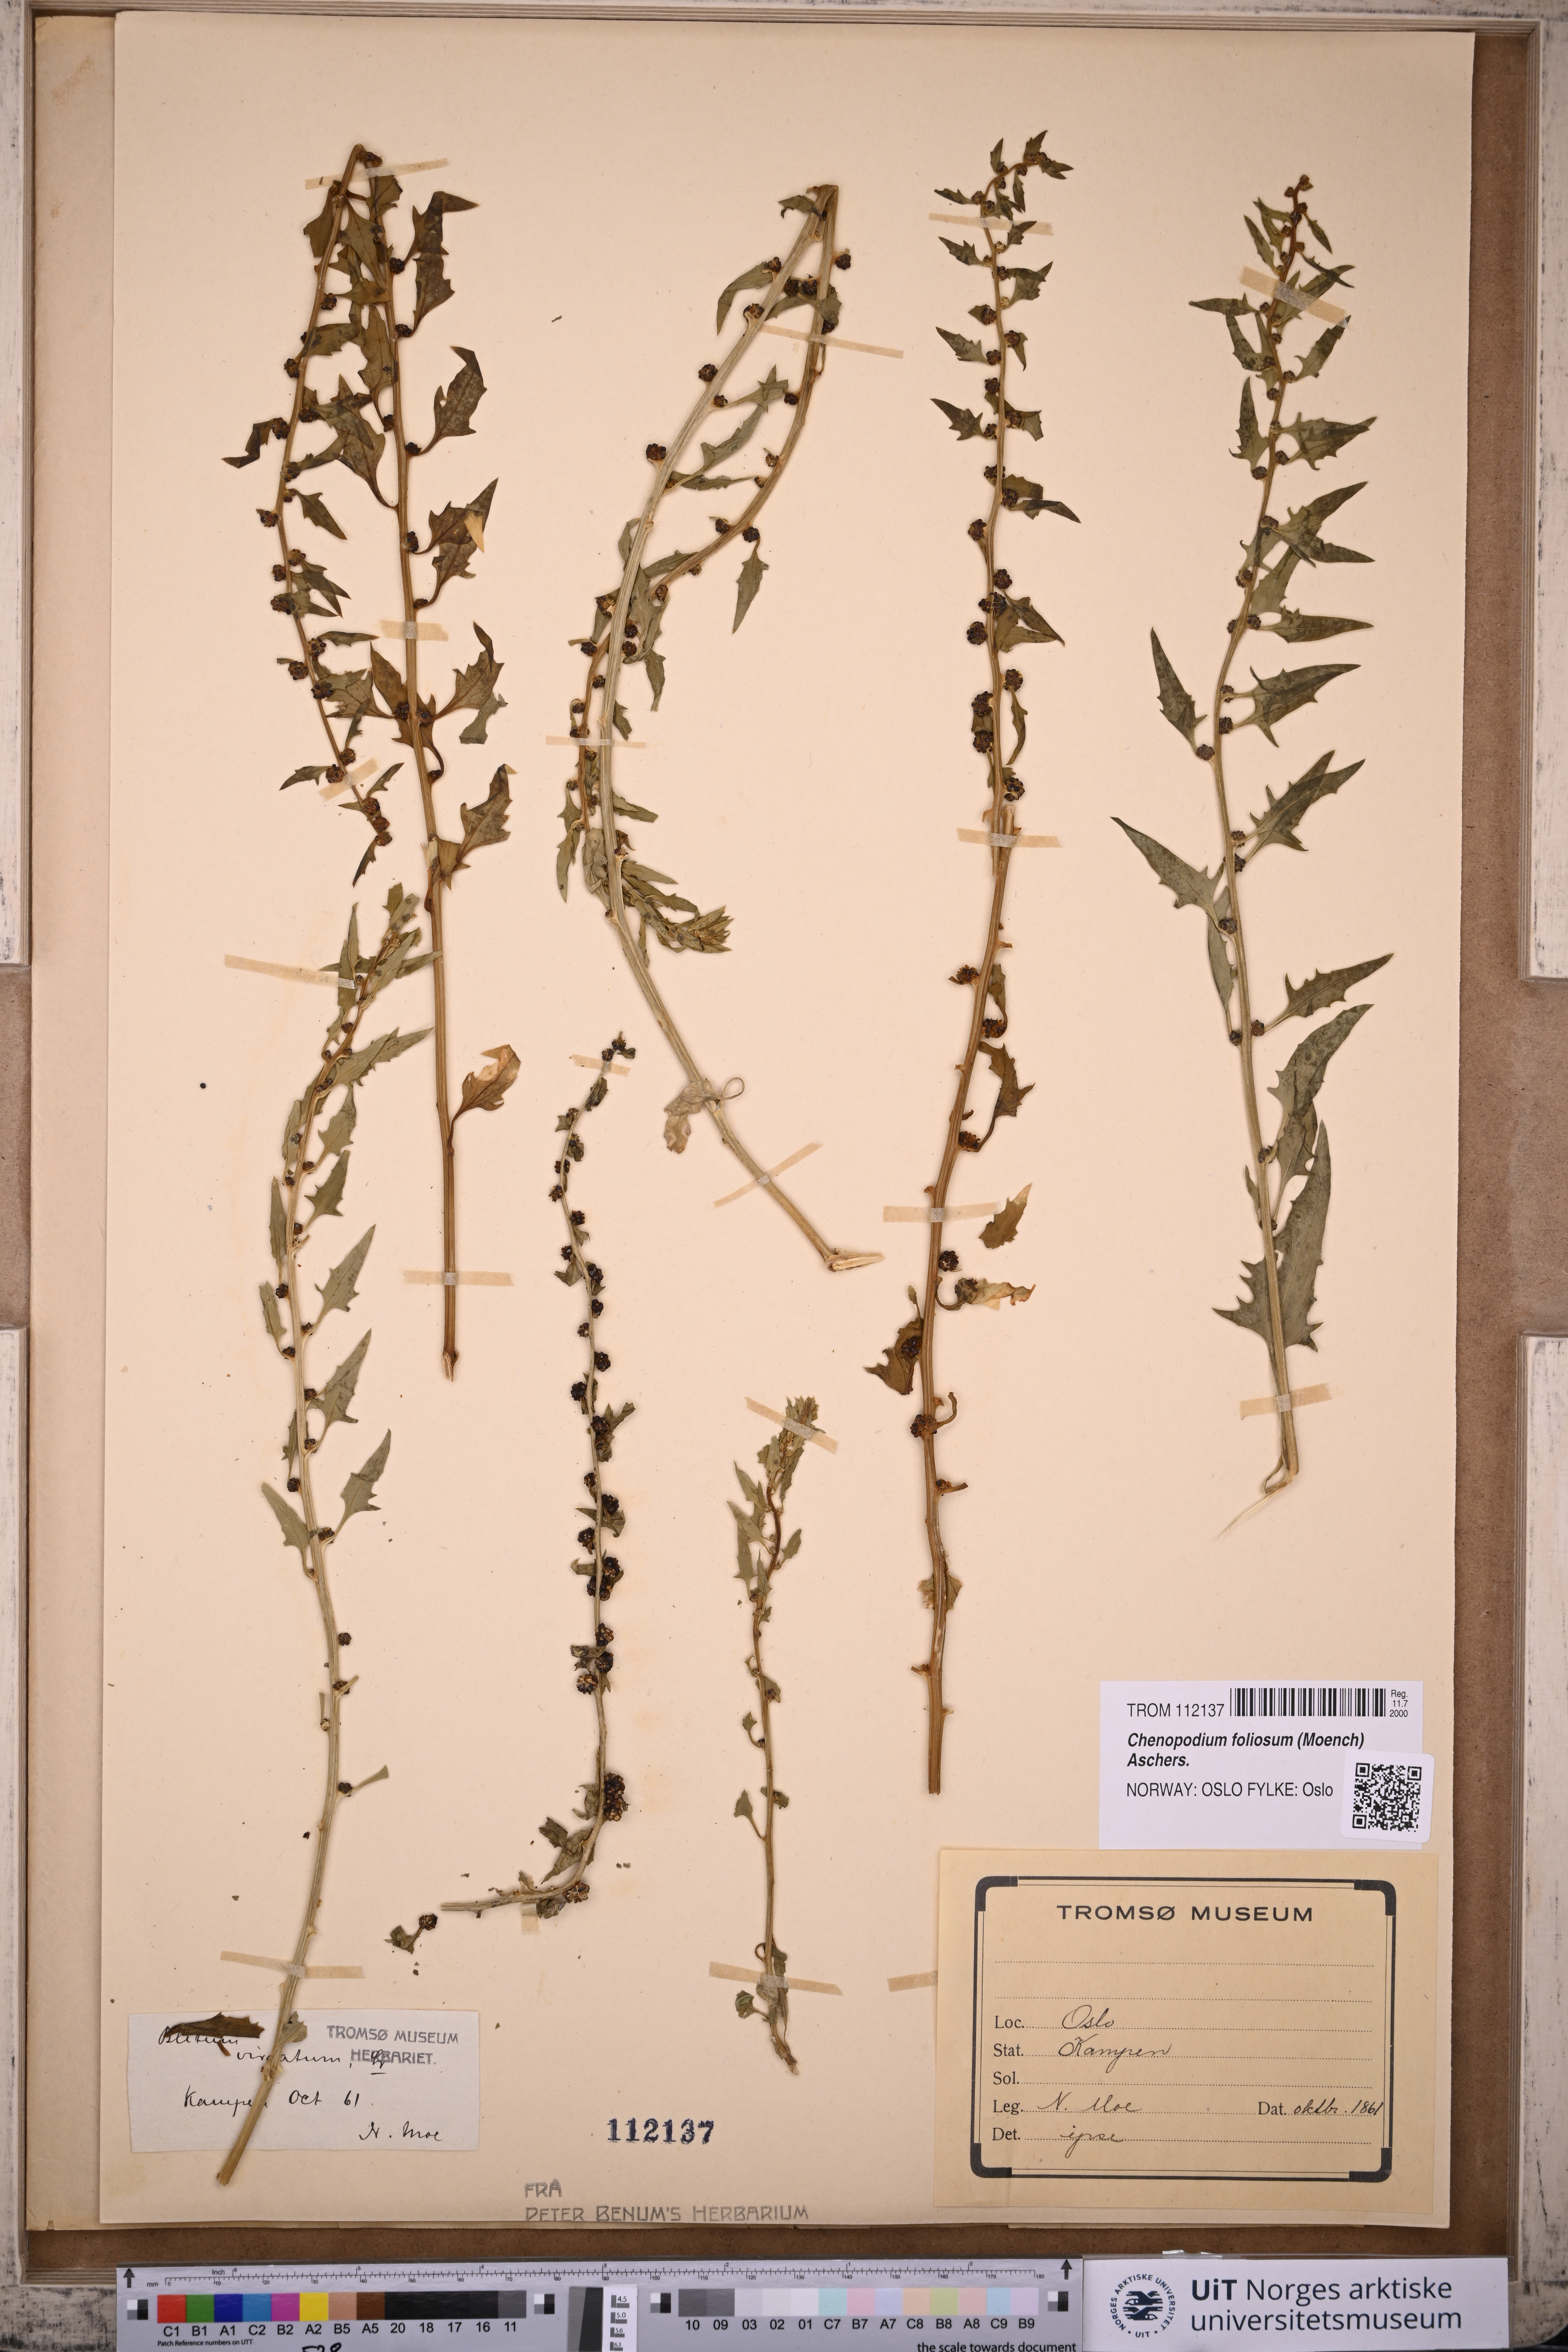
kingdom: Plantae
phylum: Tracheophyta
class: Magnoliopsida
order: Caryophyllales
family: Amaranthaceae
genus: Blitum
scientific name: Blitum virgatum
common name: Strawberry goosefoot
